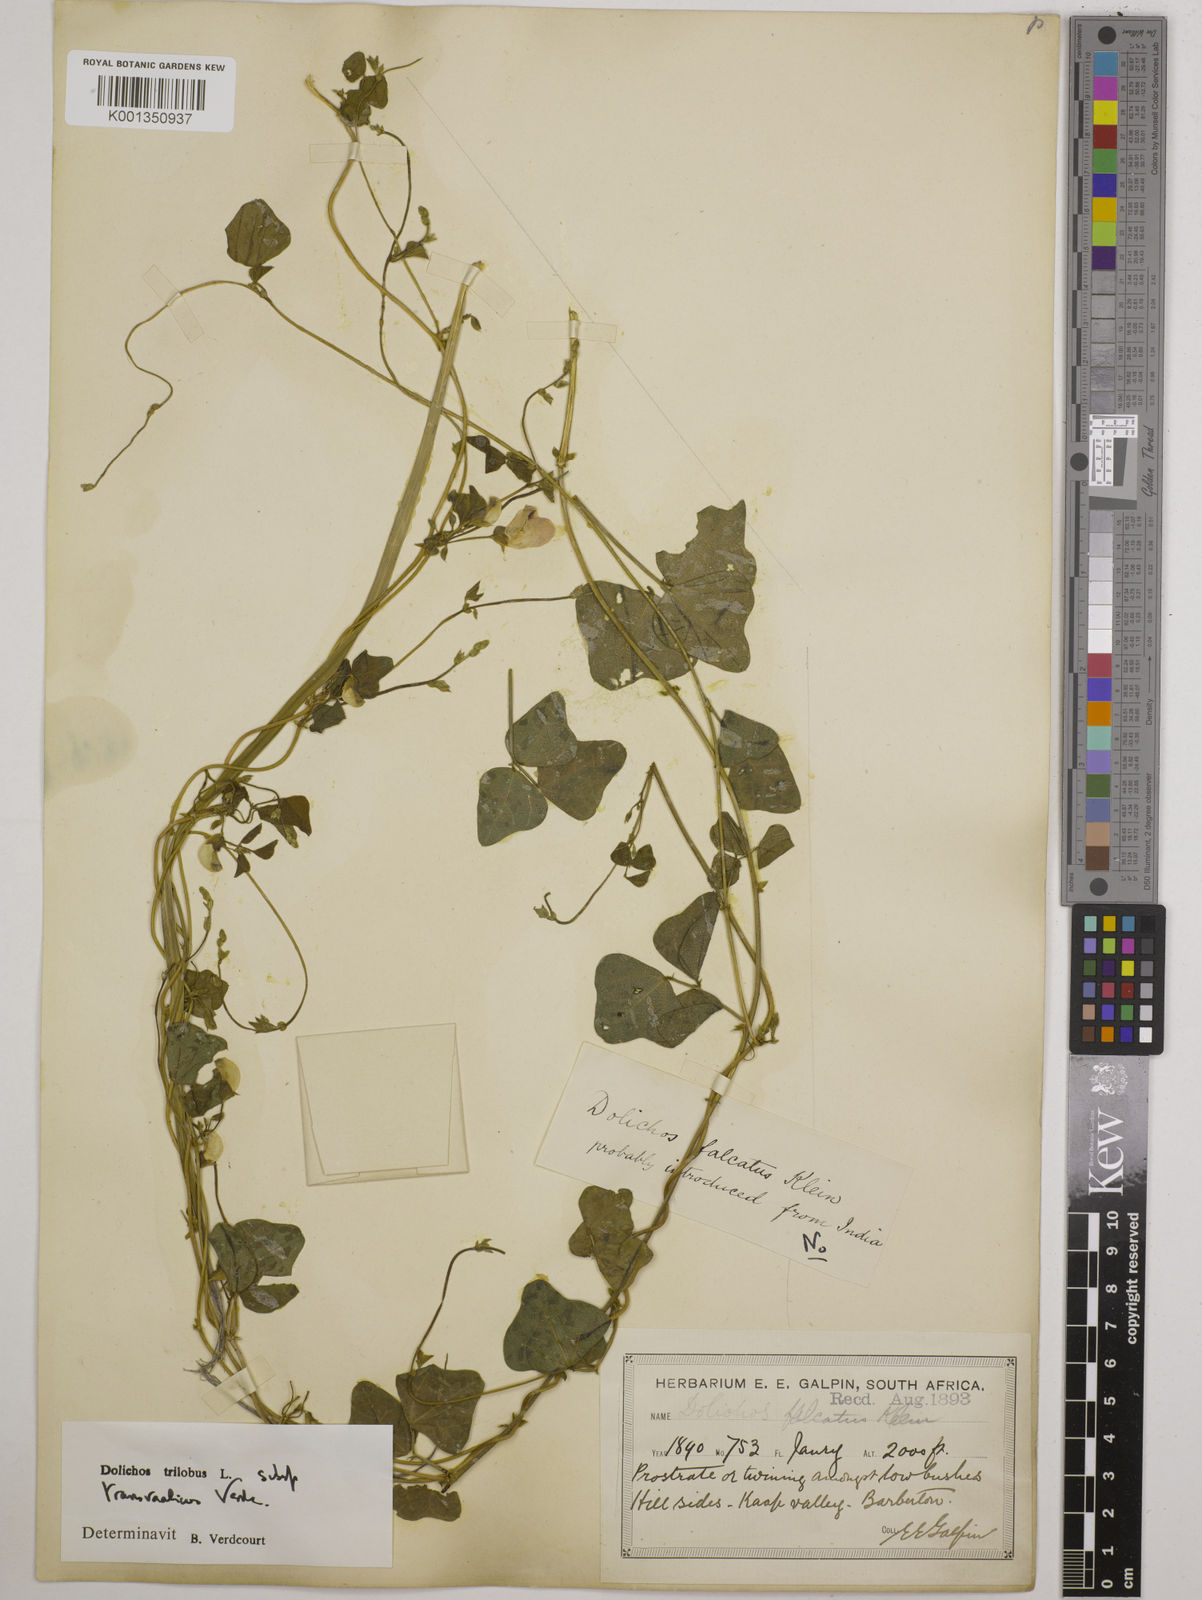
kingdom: Plantae
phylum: Tracheophyta
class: Magnoliopsida
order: Fabales
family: Fabaceae
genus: Dolichos
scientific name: Dolichos
